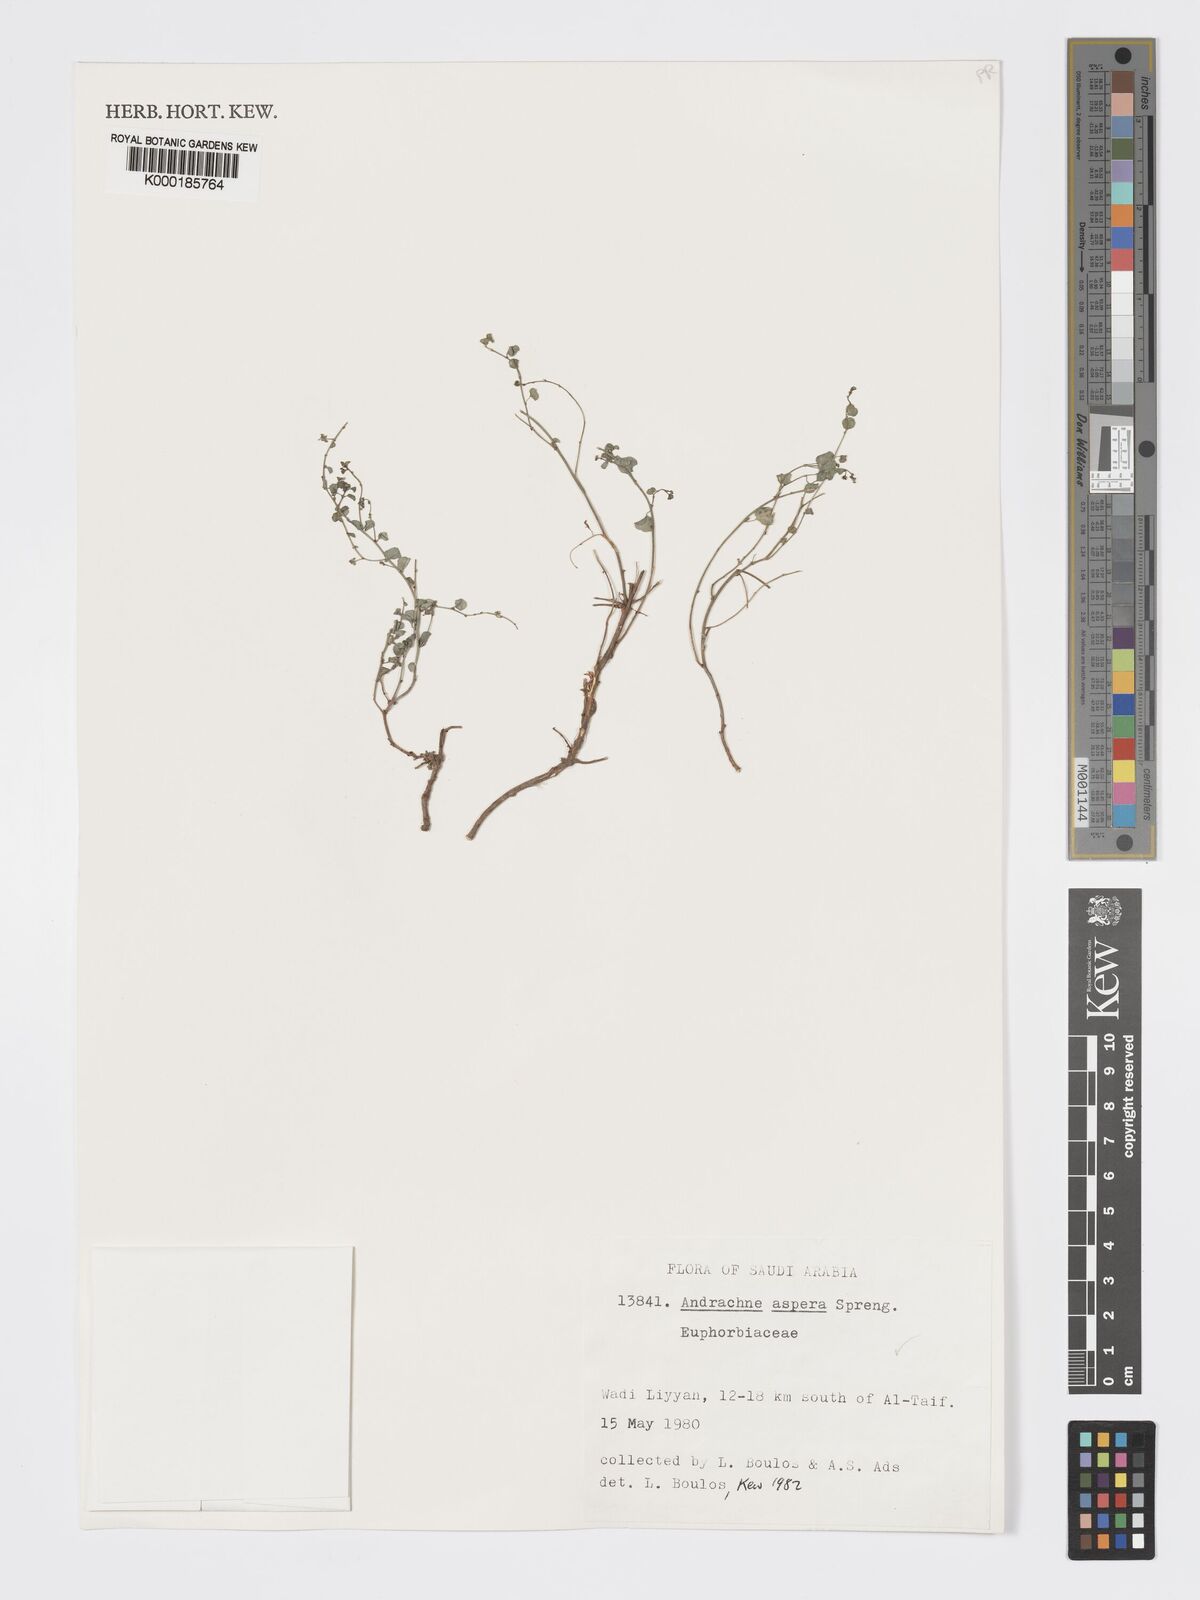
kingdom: Plantae
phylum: Tracheophyta
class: Magnoliopsida
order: Malpighiales
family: Phyllanthaceae
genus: Andrachne
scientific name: Andrachne aspera
